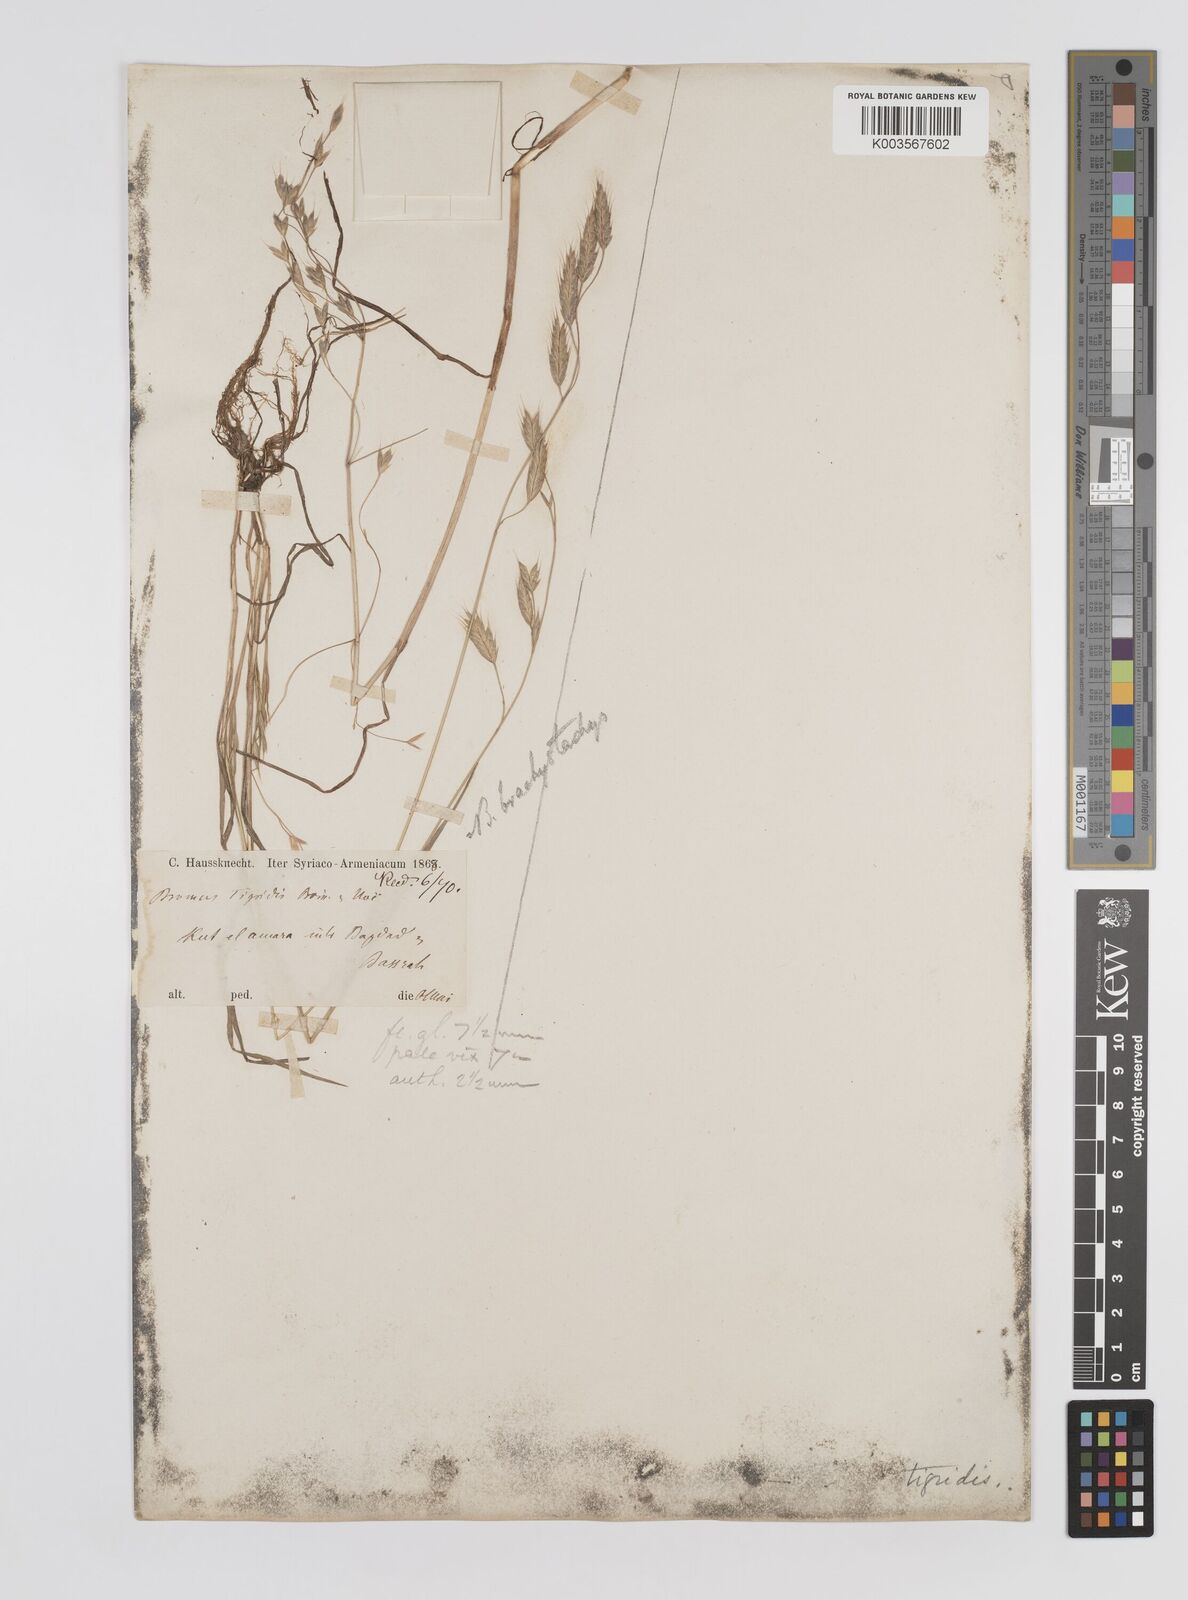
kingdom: Plantae
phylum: Tracheophyta
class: Liliopsida
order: Poales
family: Poaceae
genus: Bromus
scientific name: Bromus brachystachys
